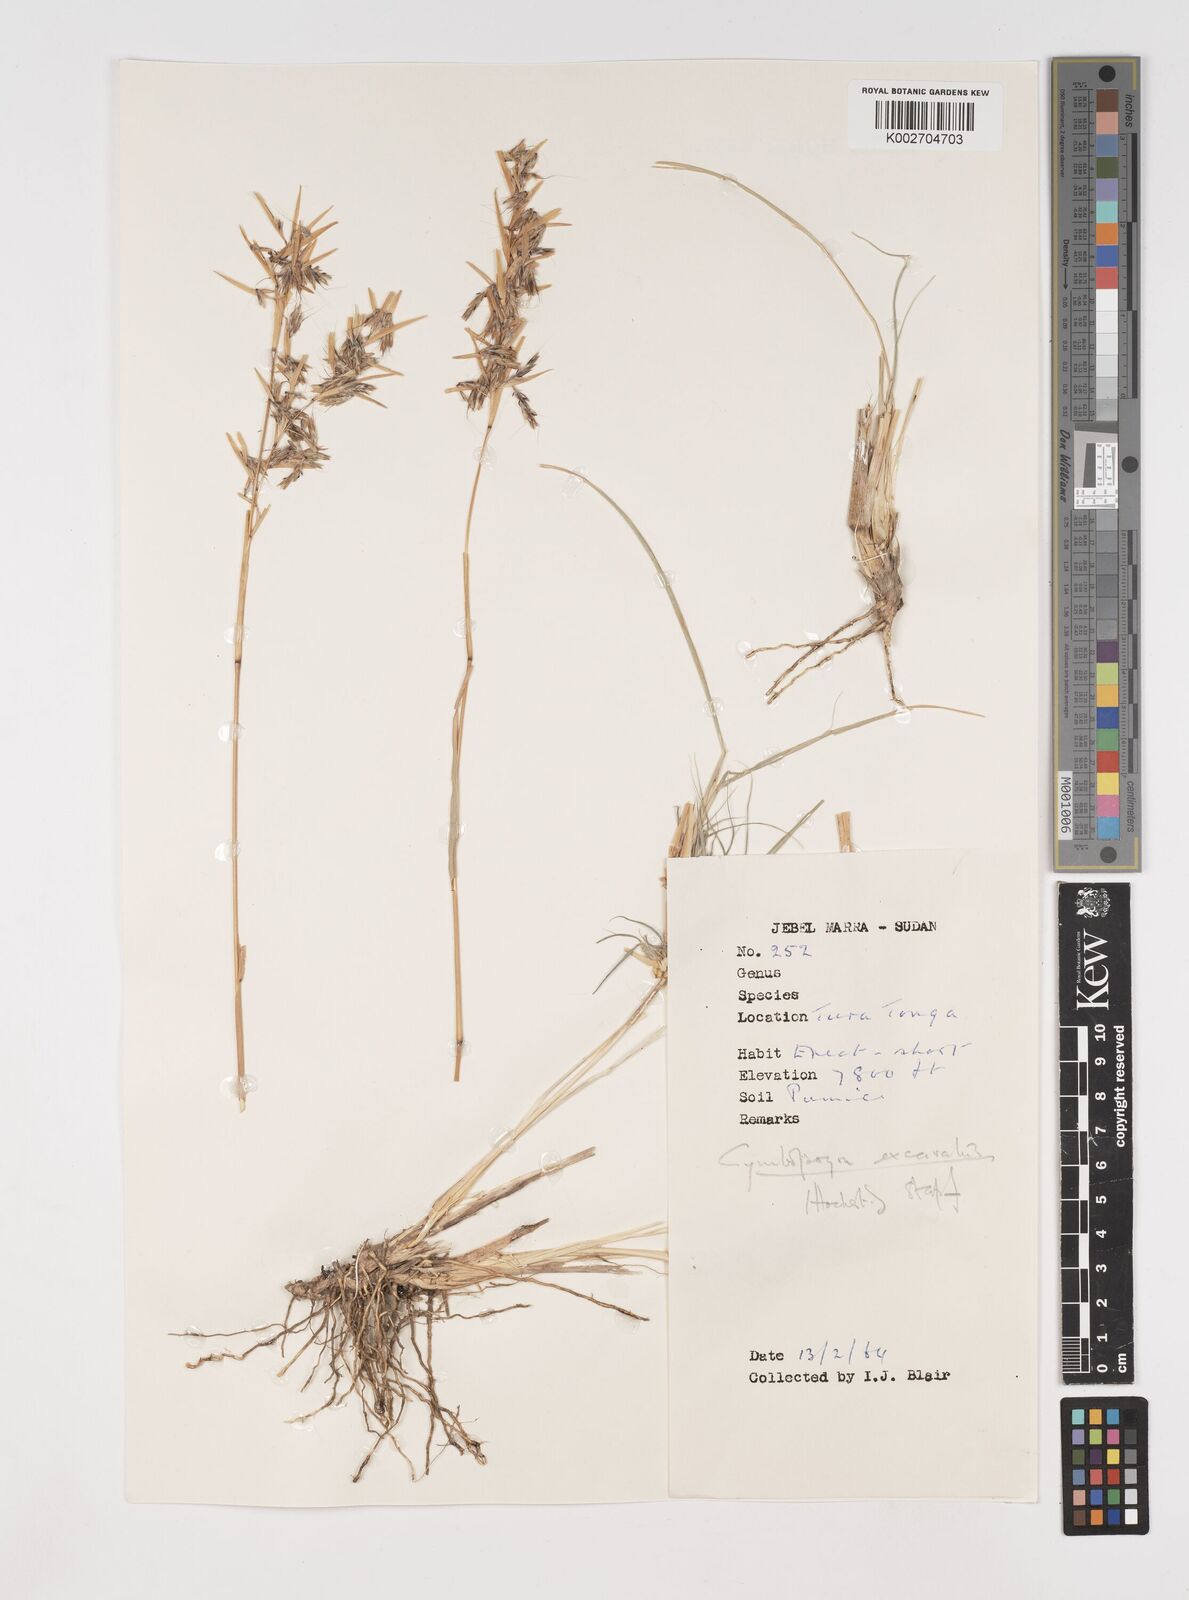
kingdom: Plantae
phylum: Tracheophyta
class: Liliopsida
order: Poales
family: Poaceae
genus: Cymbopogon
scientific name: Cymbopogon
